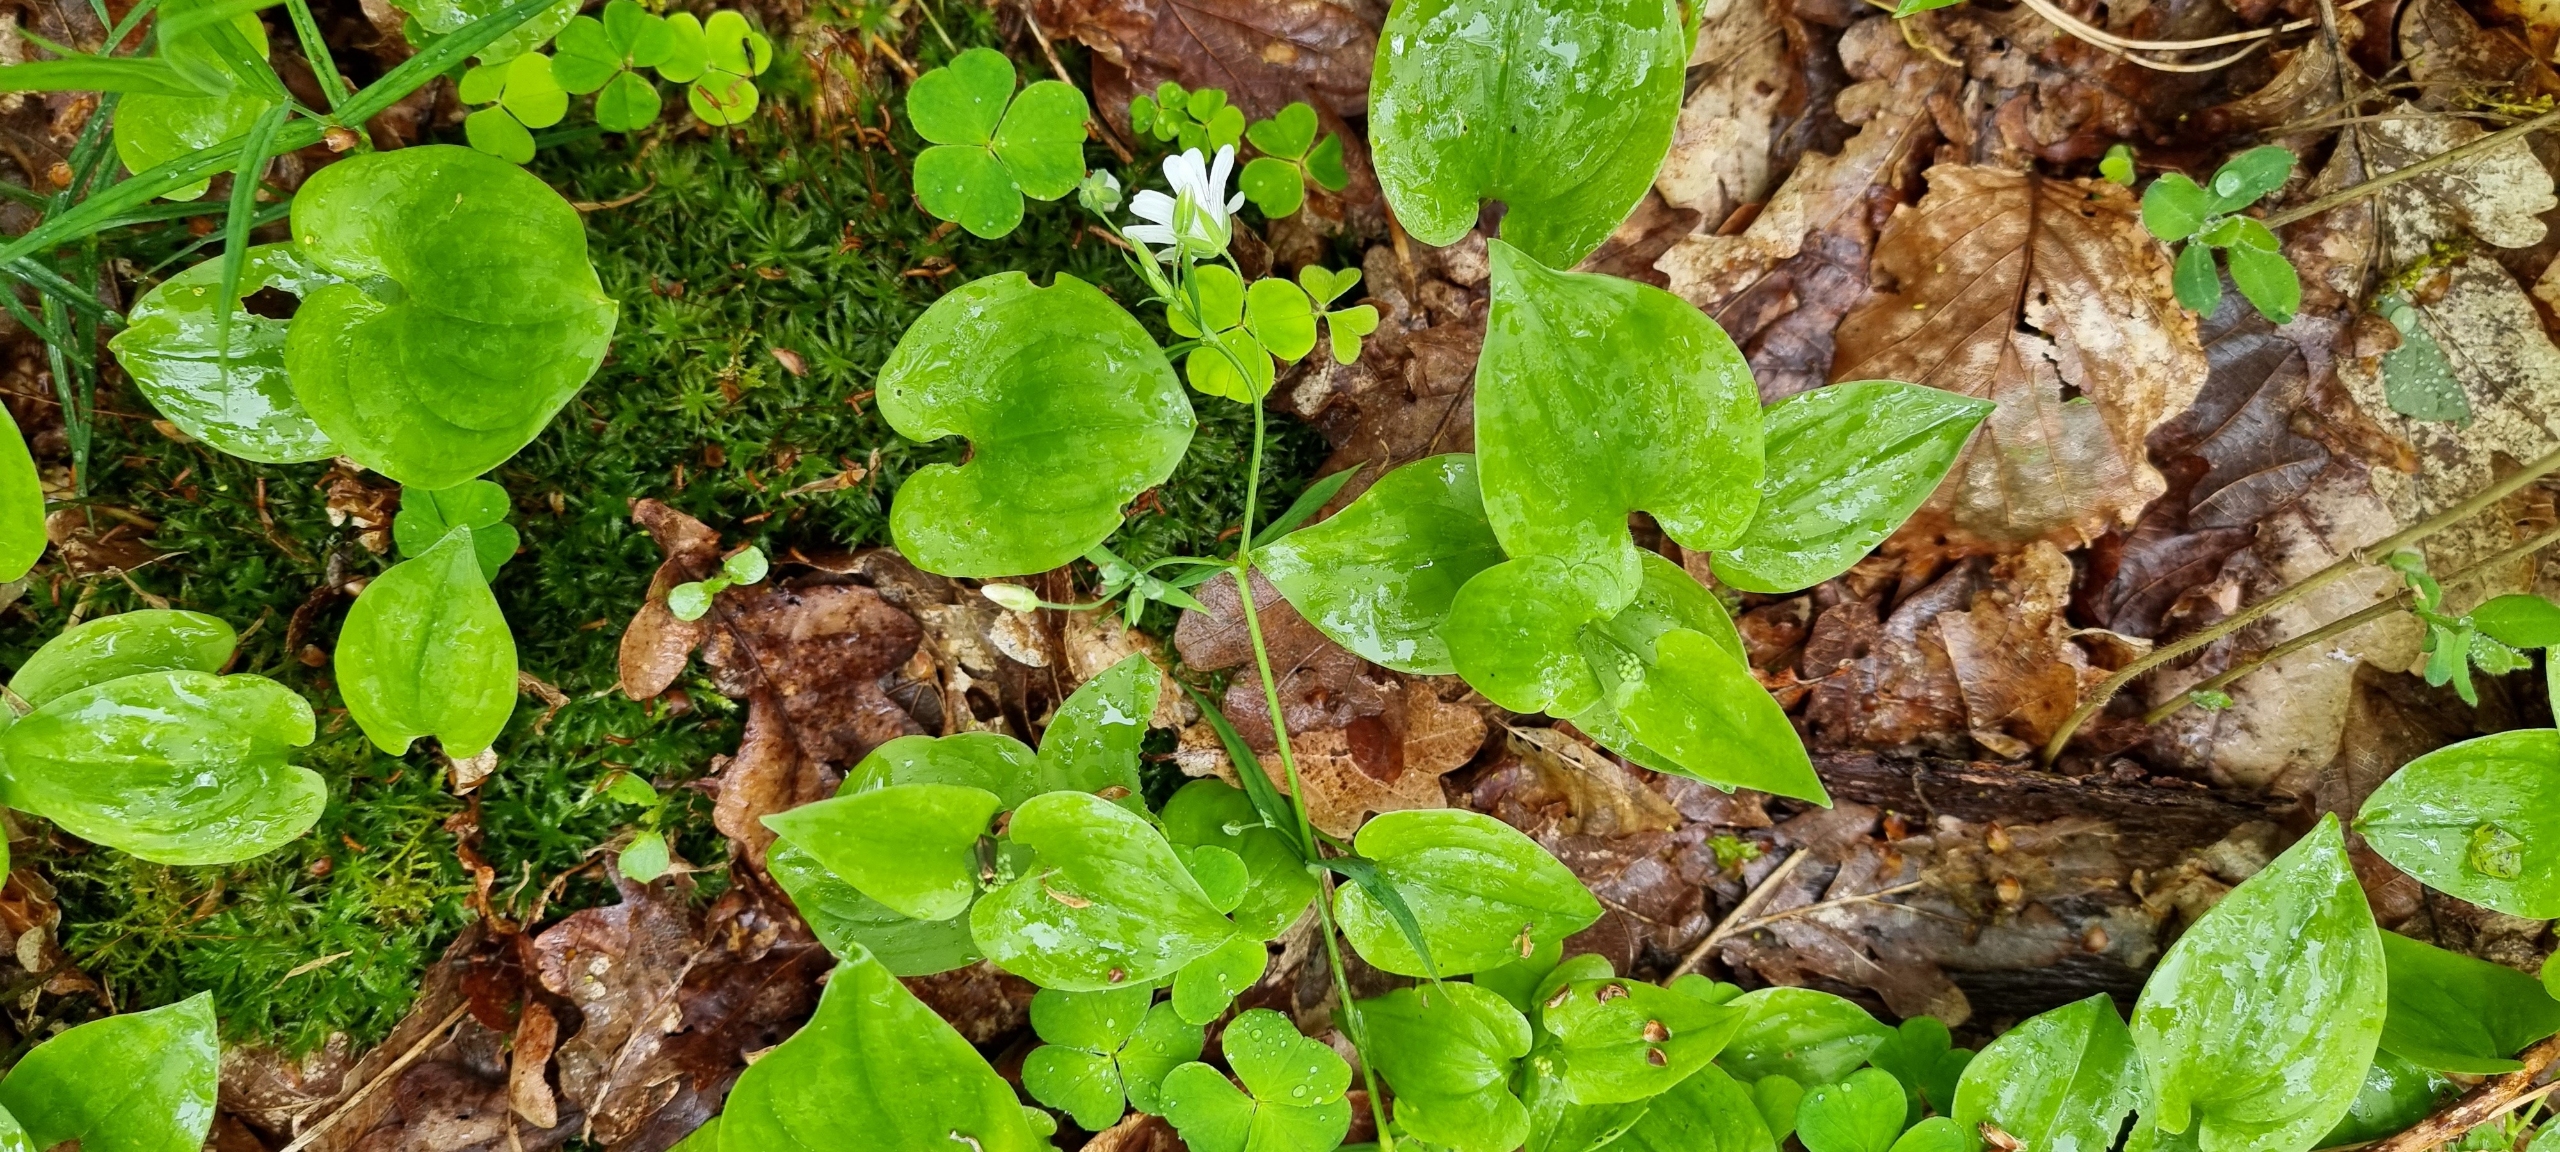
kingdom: Plantae
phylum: Tracheophyta
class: Liliopsida
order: Asparagales
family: Asparagaceae
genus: Maianthemum
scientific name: Maianthemum bifolium
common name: Majblomst
